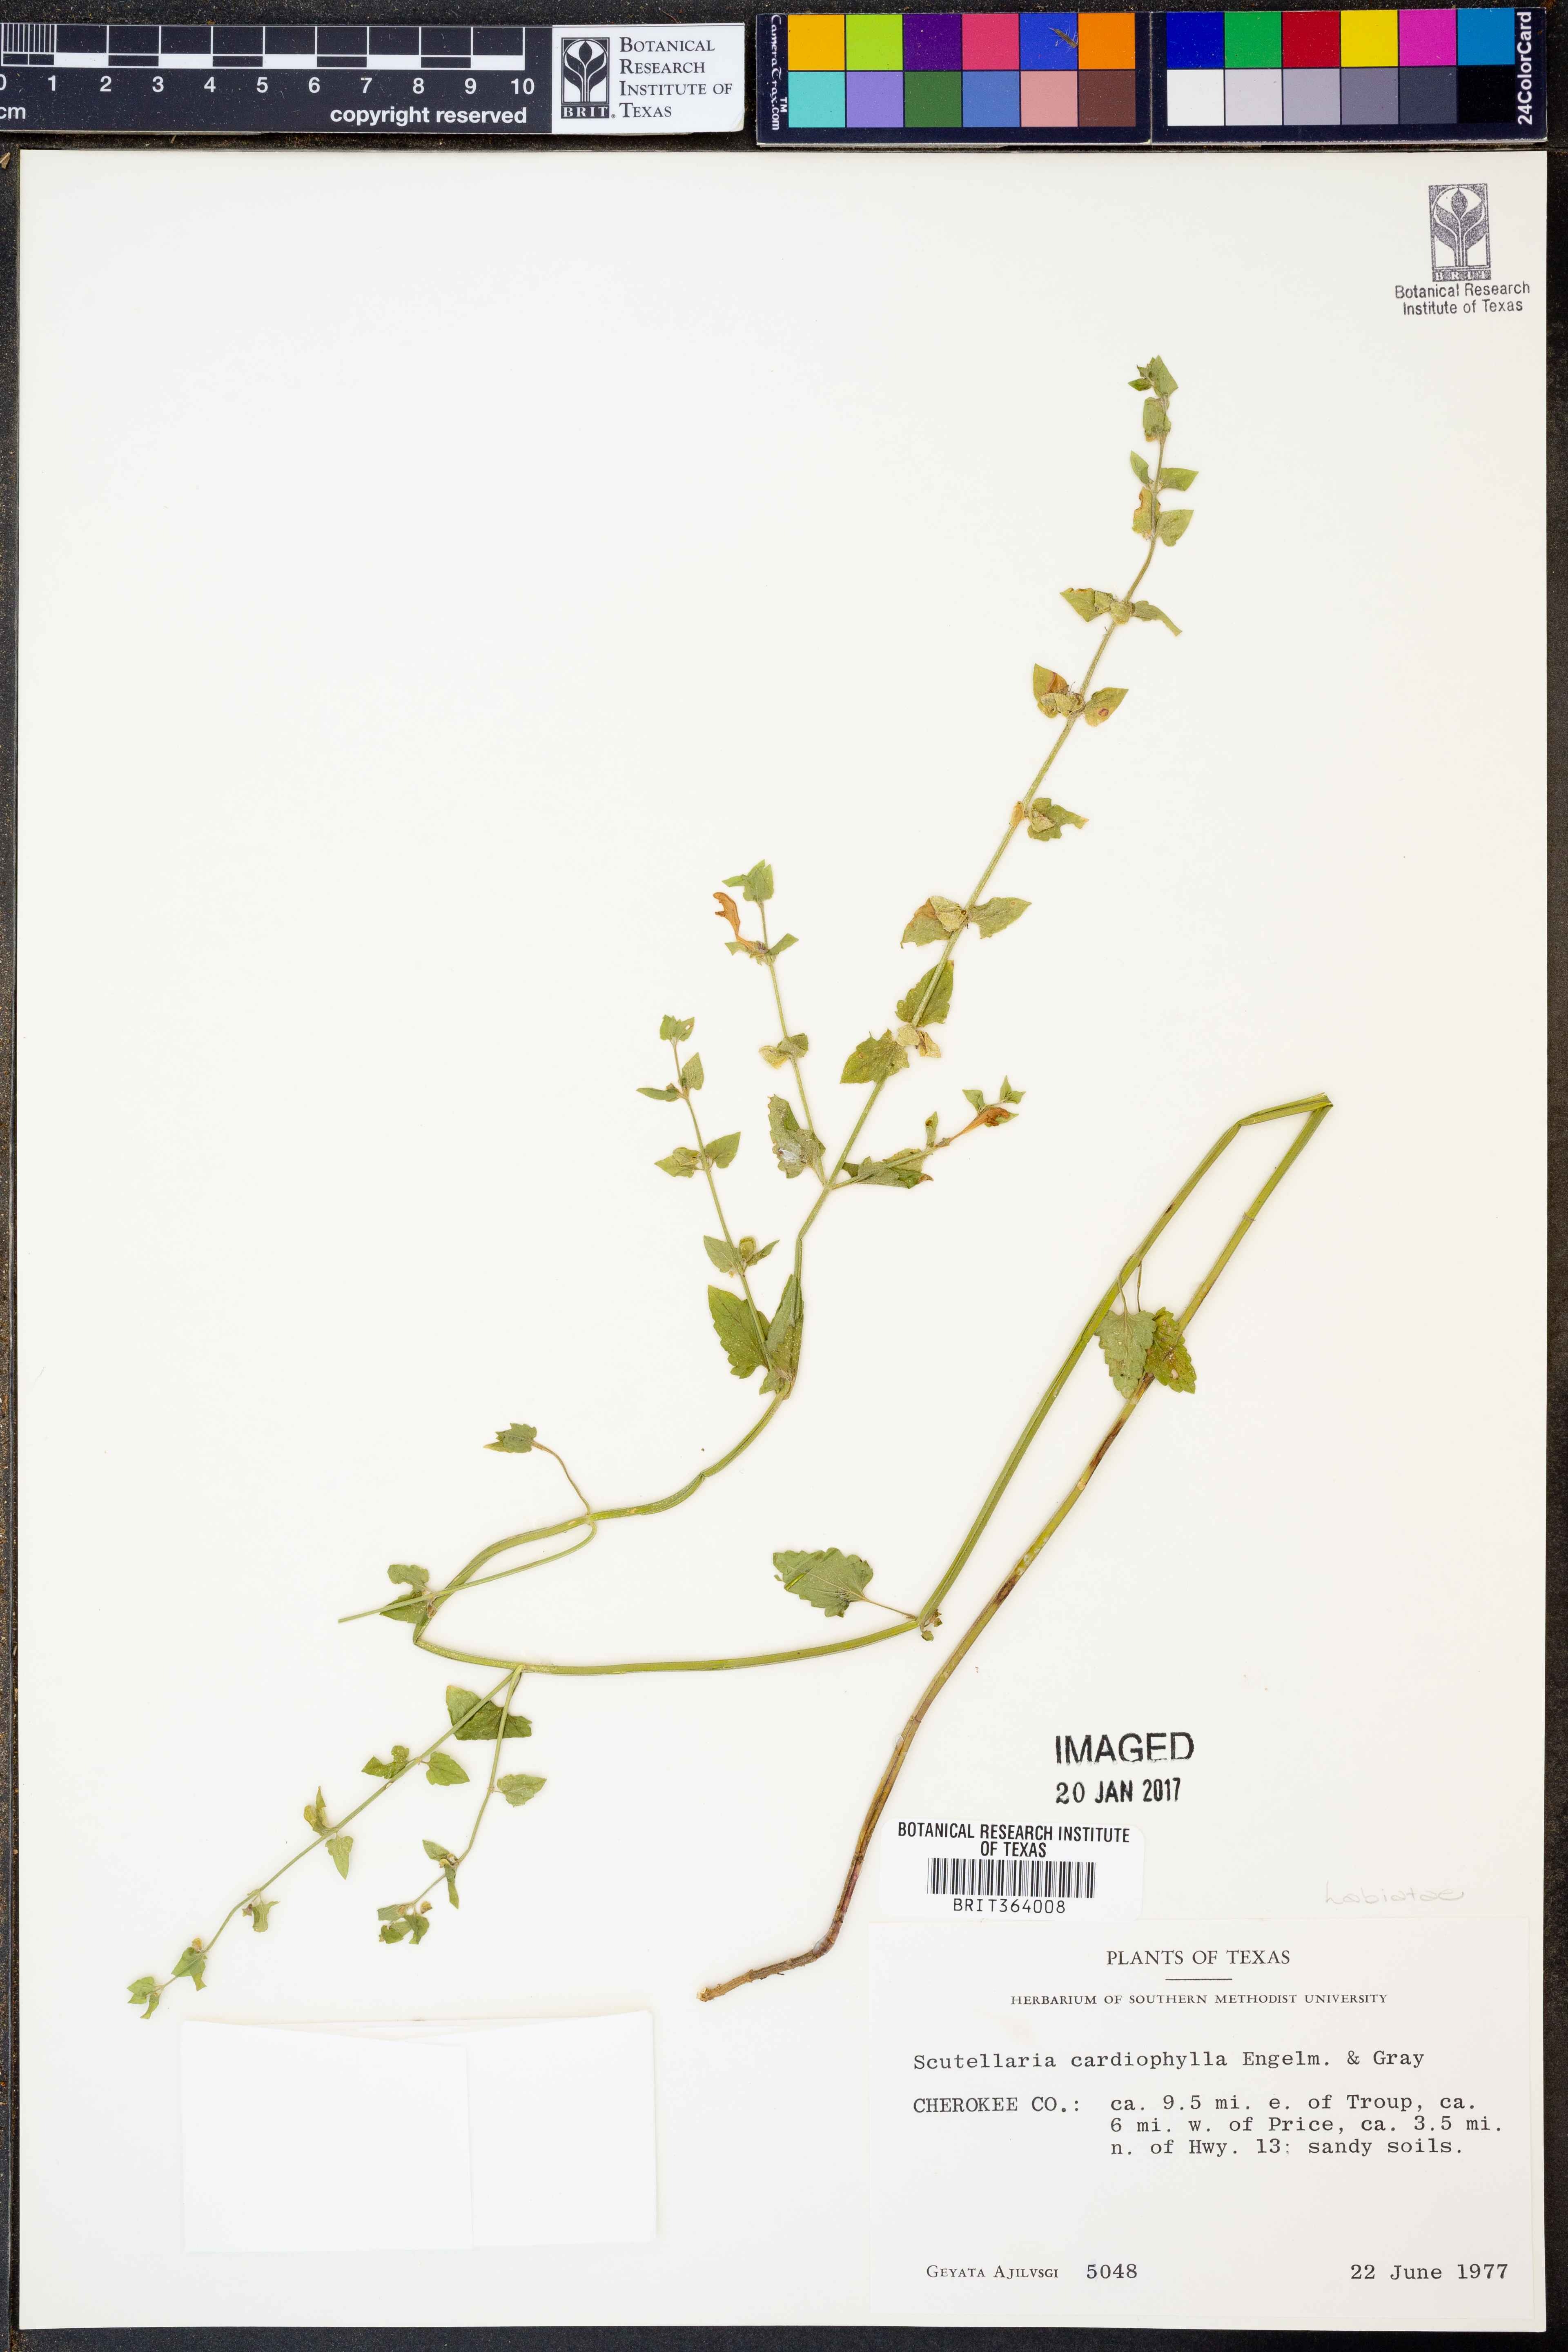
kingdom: Plantae
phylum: Tracheophyta
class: Magnoliopsida
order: Lamiales
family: Lamiaceae
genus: Scutellaria
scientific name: Scutellaria cardiophylla
